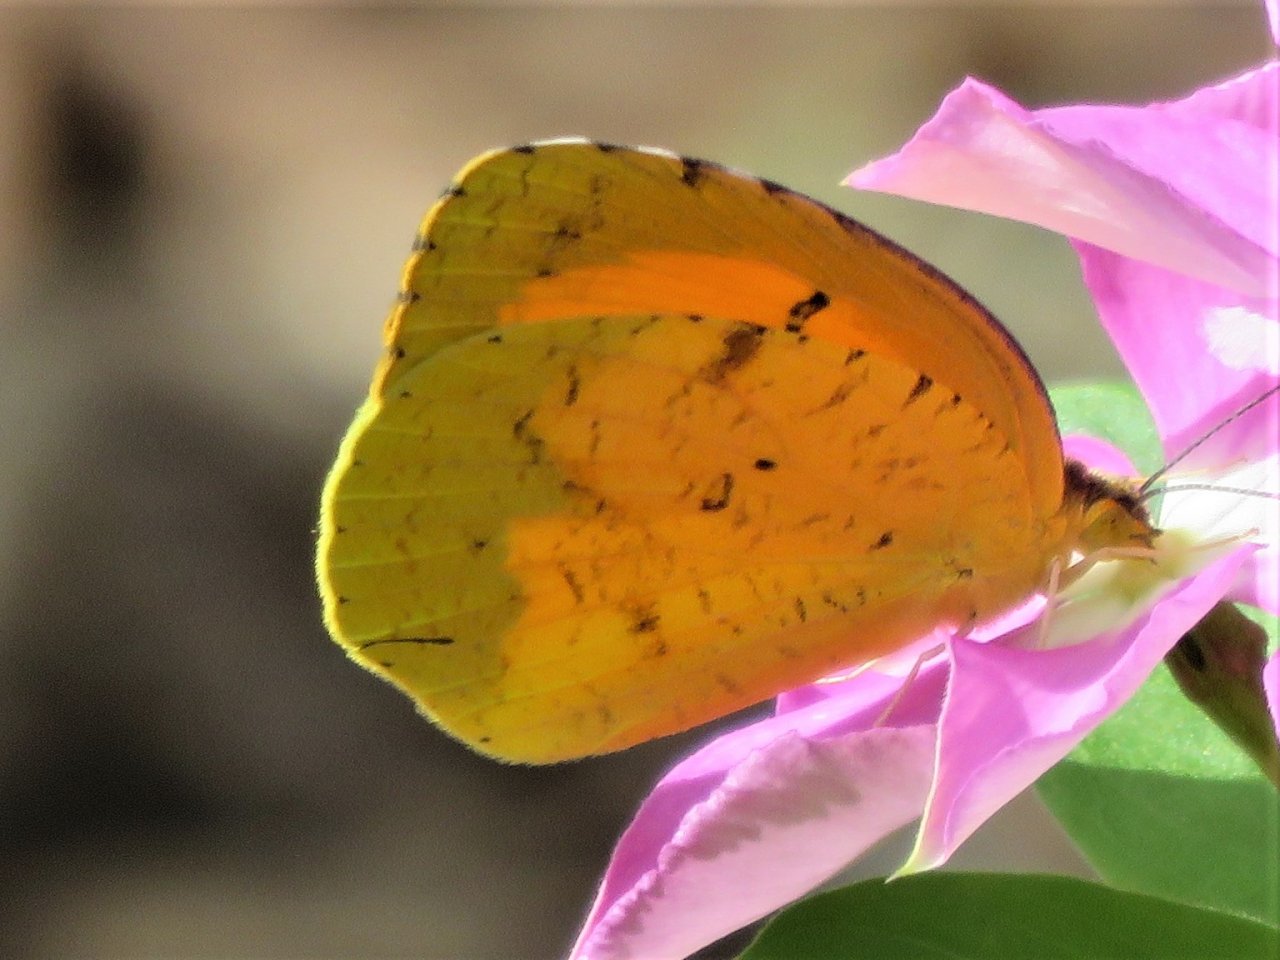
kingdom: Animalia
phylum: Arthropoda
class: Insecta
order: Lepidoptera
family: Pieridae
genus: Abaeis
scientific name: Abaeis nicippe
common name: Sleepy Orange
